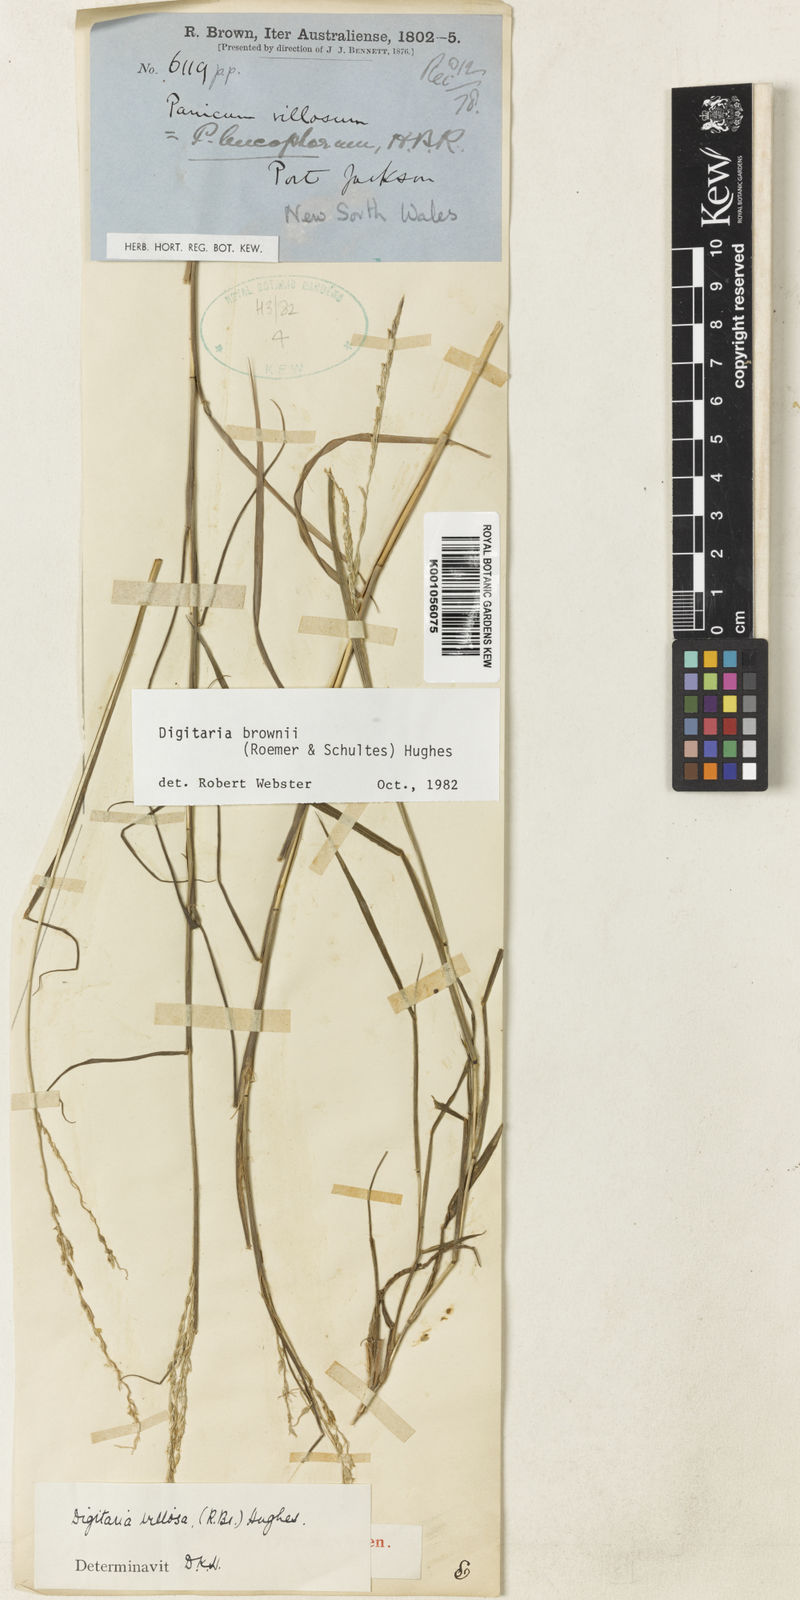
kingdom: Plantae
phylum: Tracheophyta
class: Liliopsida
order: Poales
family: Poaceae
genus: Digitaria
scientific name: Digitaria brownii
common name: Cotton grass
